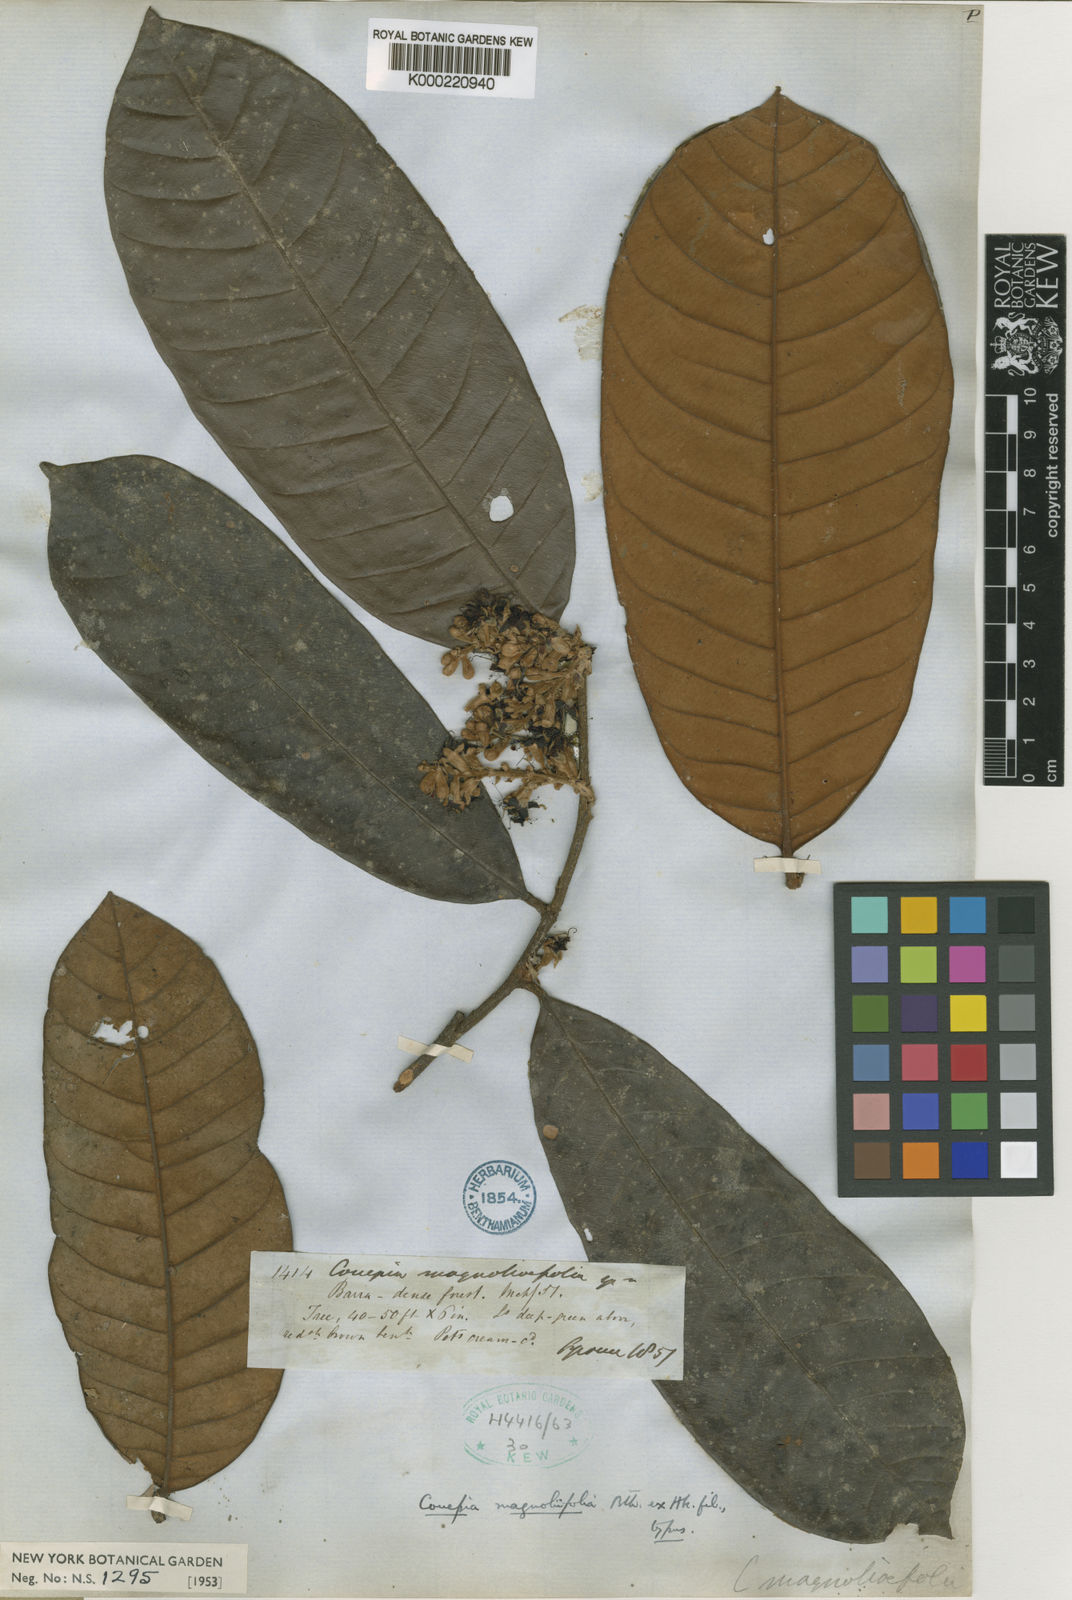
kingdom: Plantae
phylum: Tracheophyta
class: Magnoliopsida
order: Malpighiales
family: Chrysobalanaceae
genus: Couepia
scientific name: Couepia magnoliifolia
